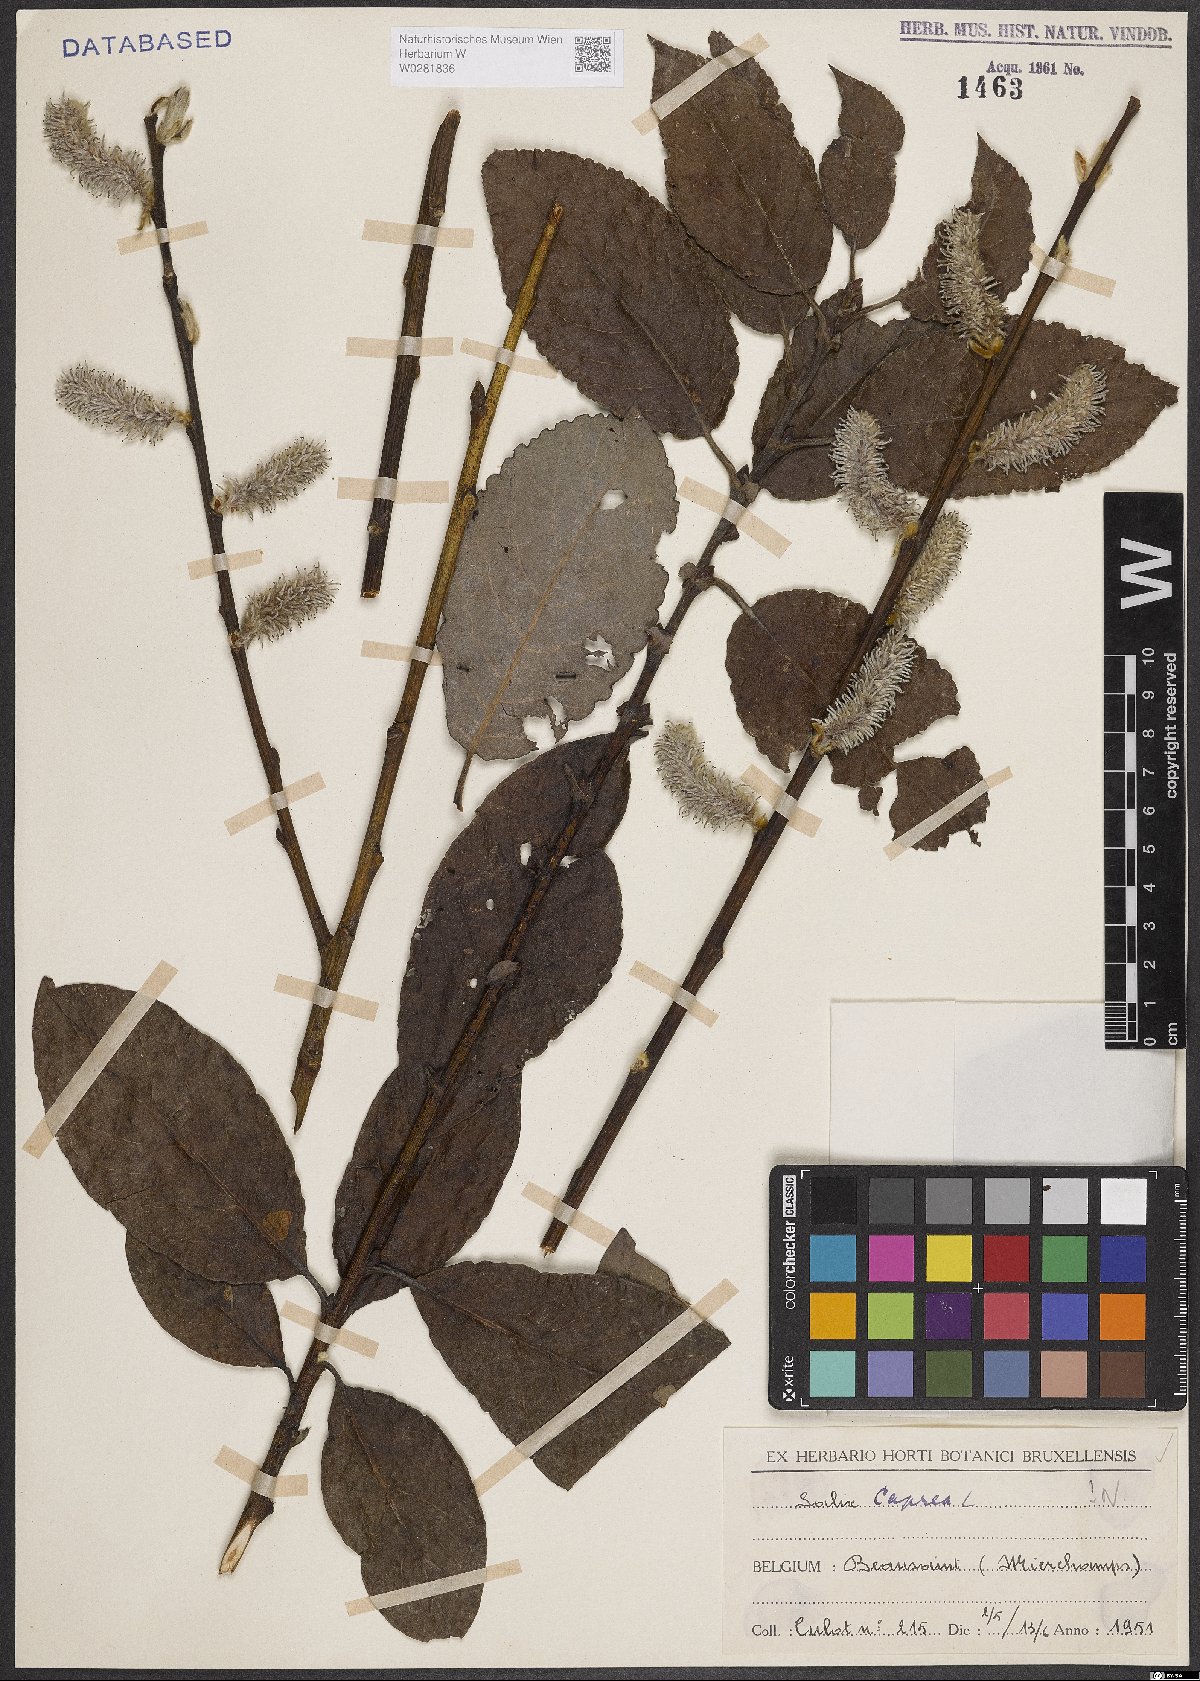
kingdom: Plantae
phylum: Tracheophyta
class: Magnoliopsida
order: Malpighiales
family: Salicaceae
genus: Salix
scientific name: Salix caprea
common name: Goat willow
